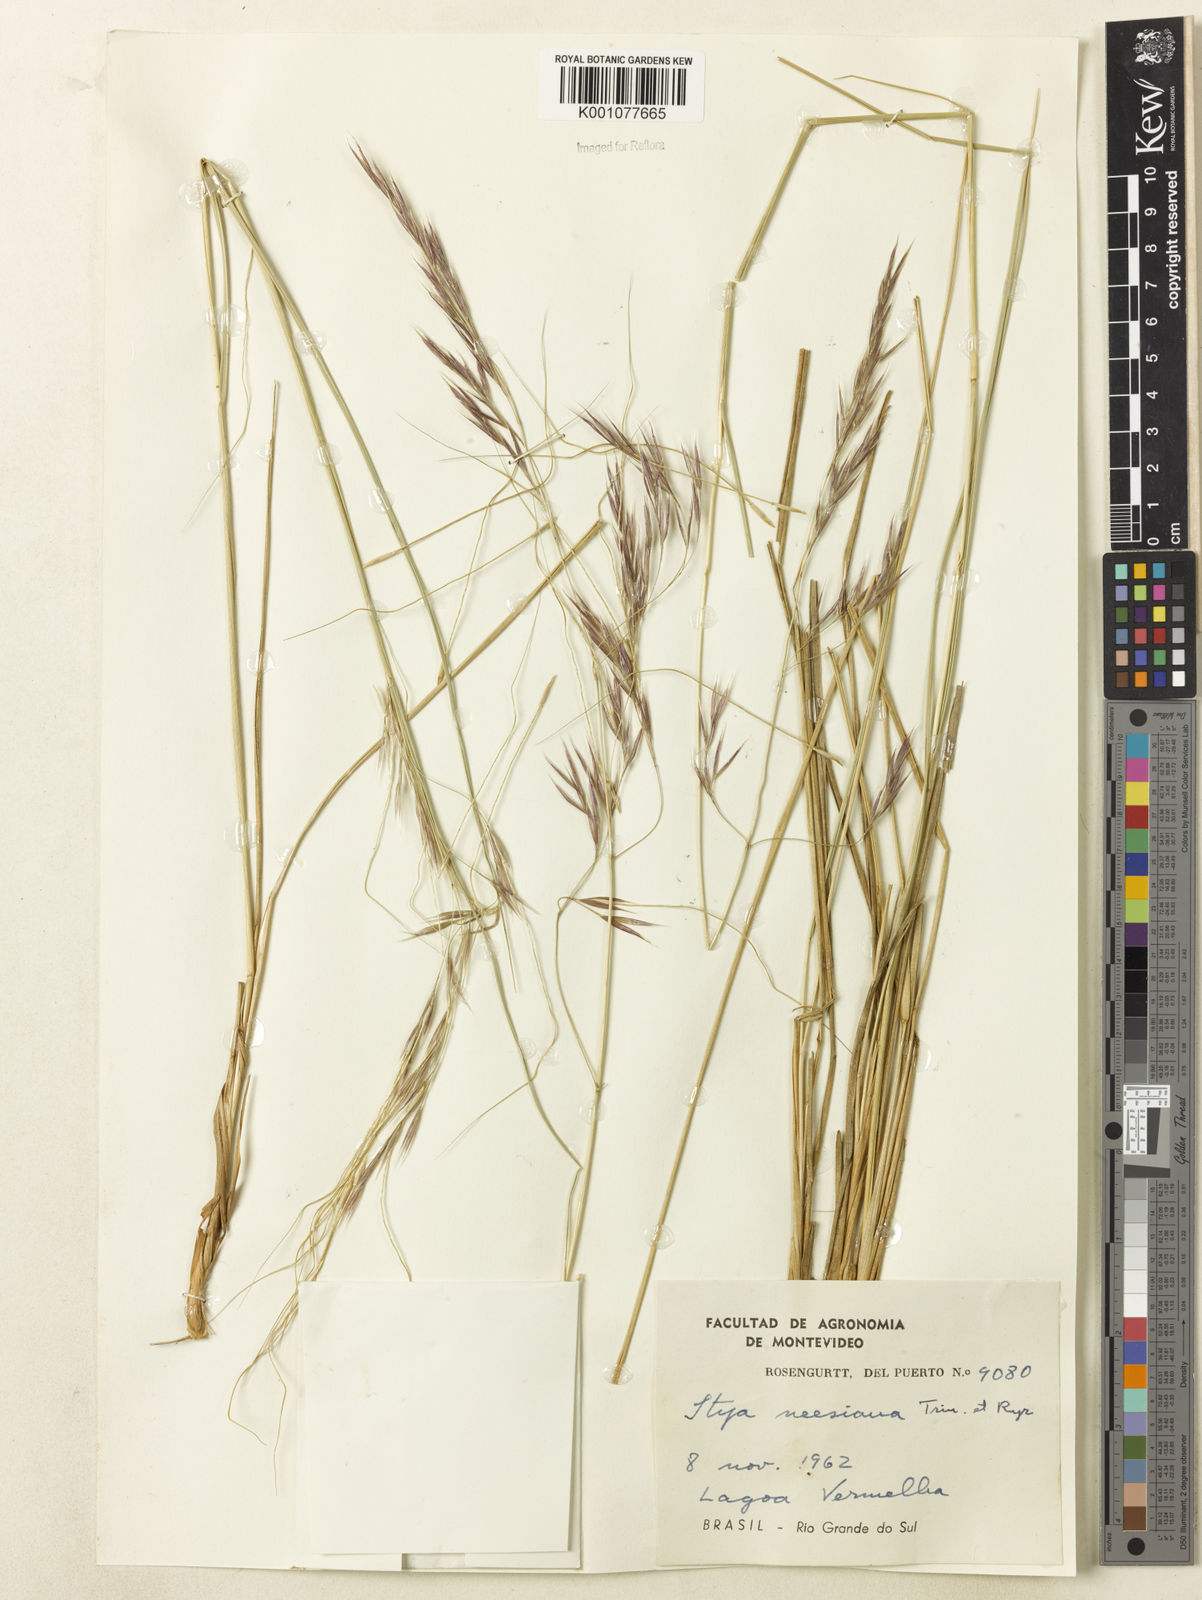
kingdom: Plantae
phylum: Tracheophyta
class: Liliopsida
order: Poales
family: Poaceae
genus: Nassella
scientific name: Nassella neesiana
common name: American needle-grass
